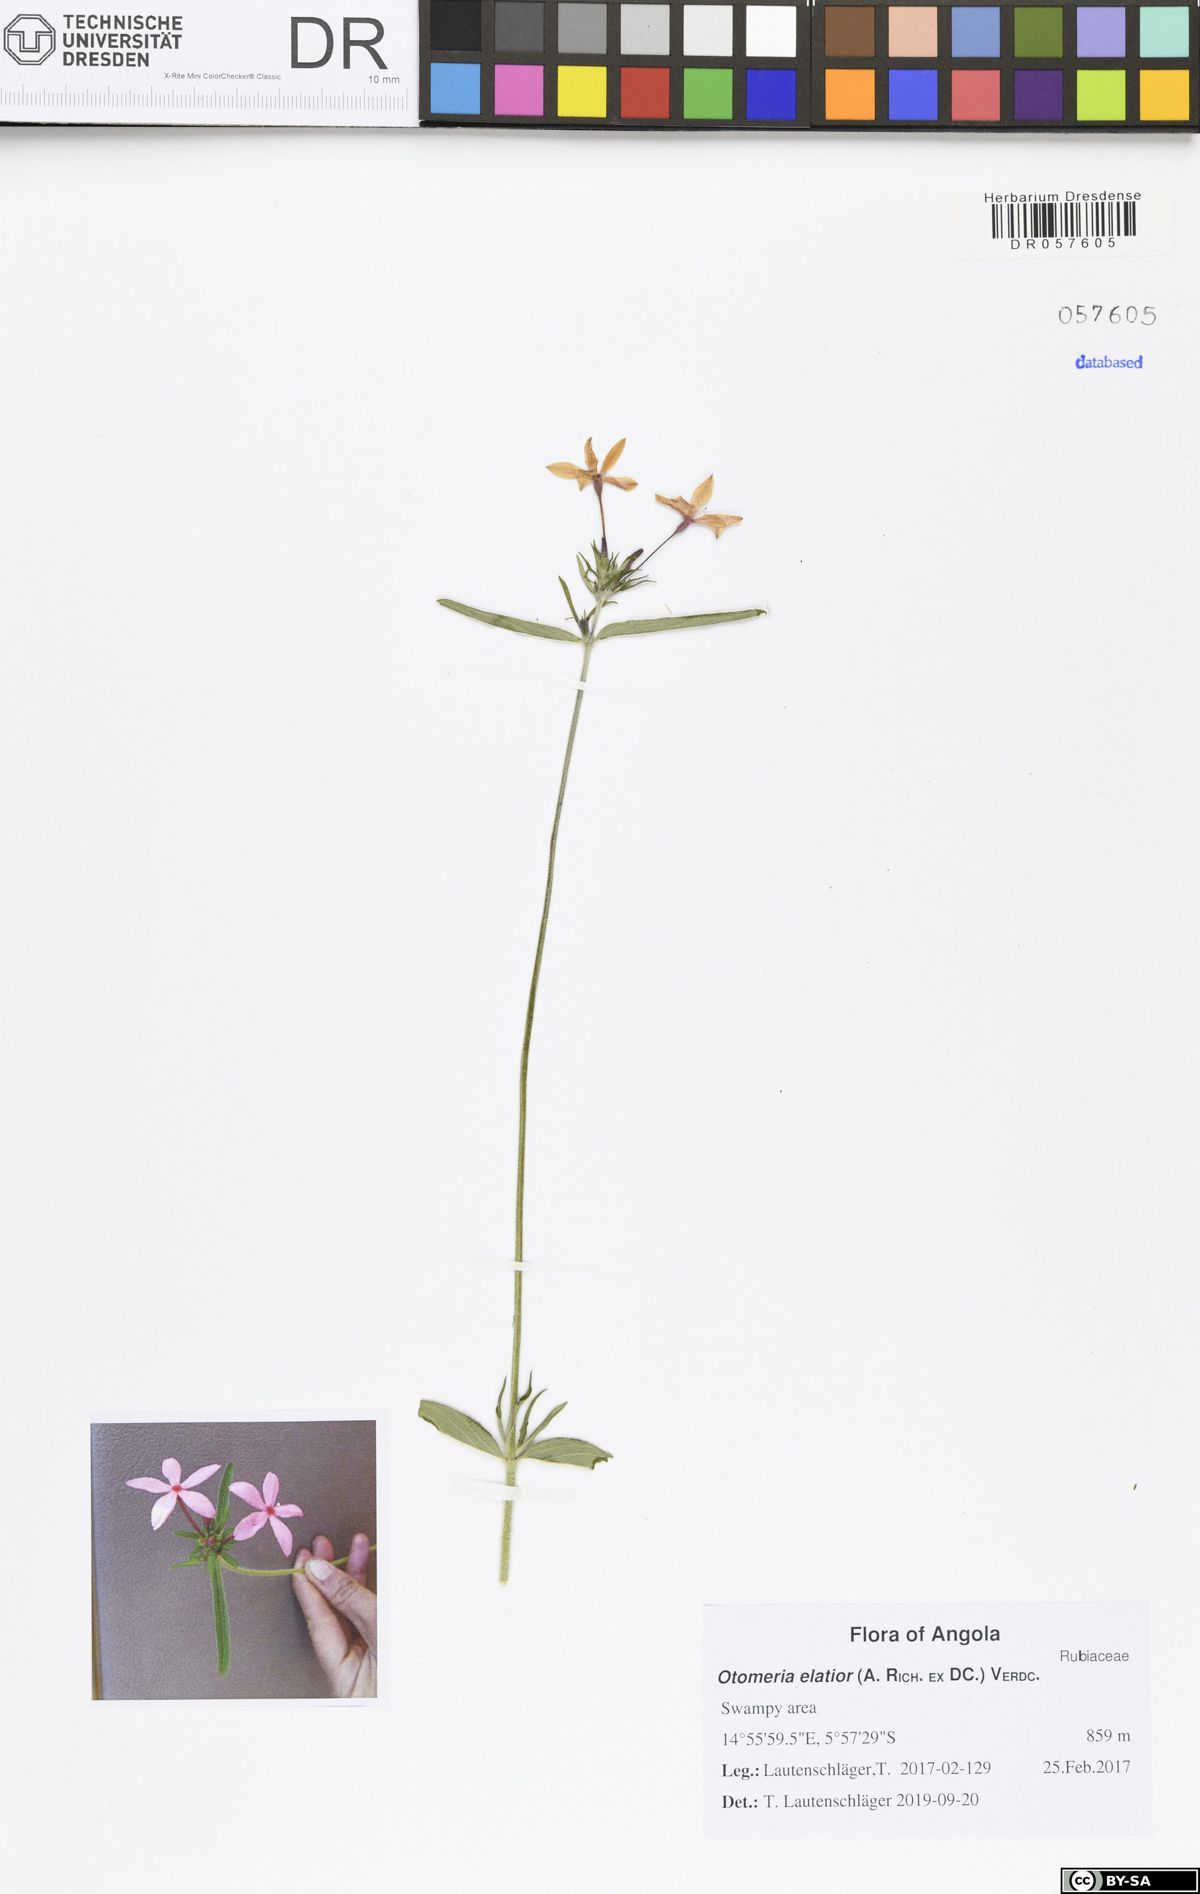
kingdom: Plantae
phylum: Tracheophyta
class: Magnoliopsida
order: Gentianales
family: Rubiaceae
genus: Otomeria
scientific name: Otomeria elatior
